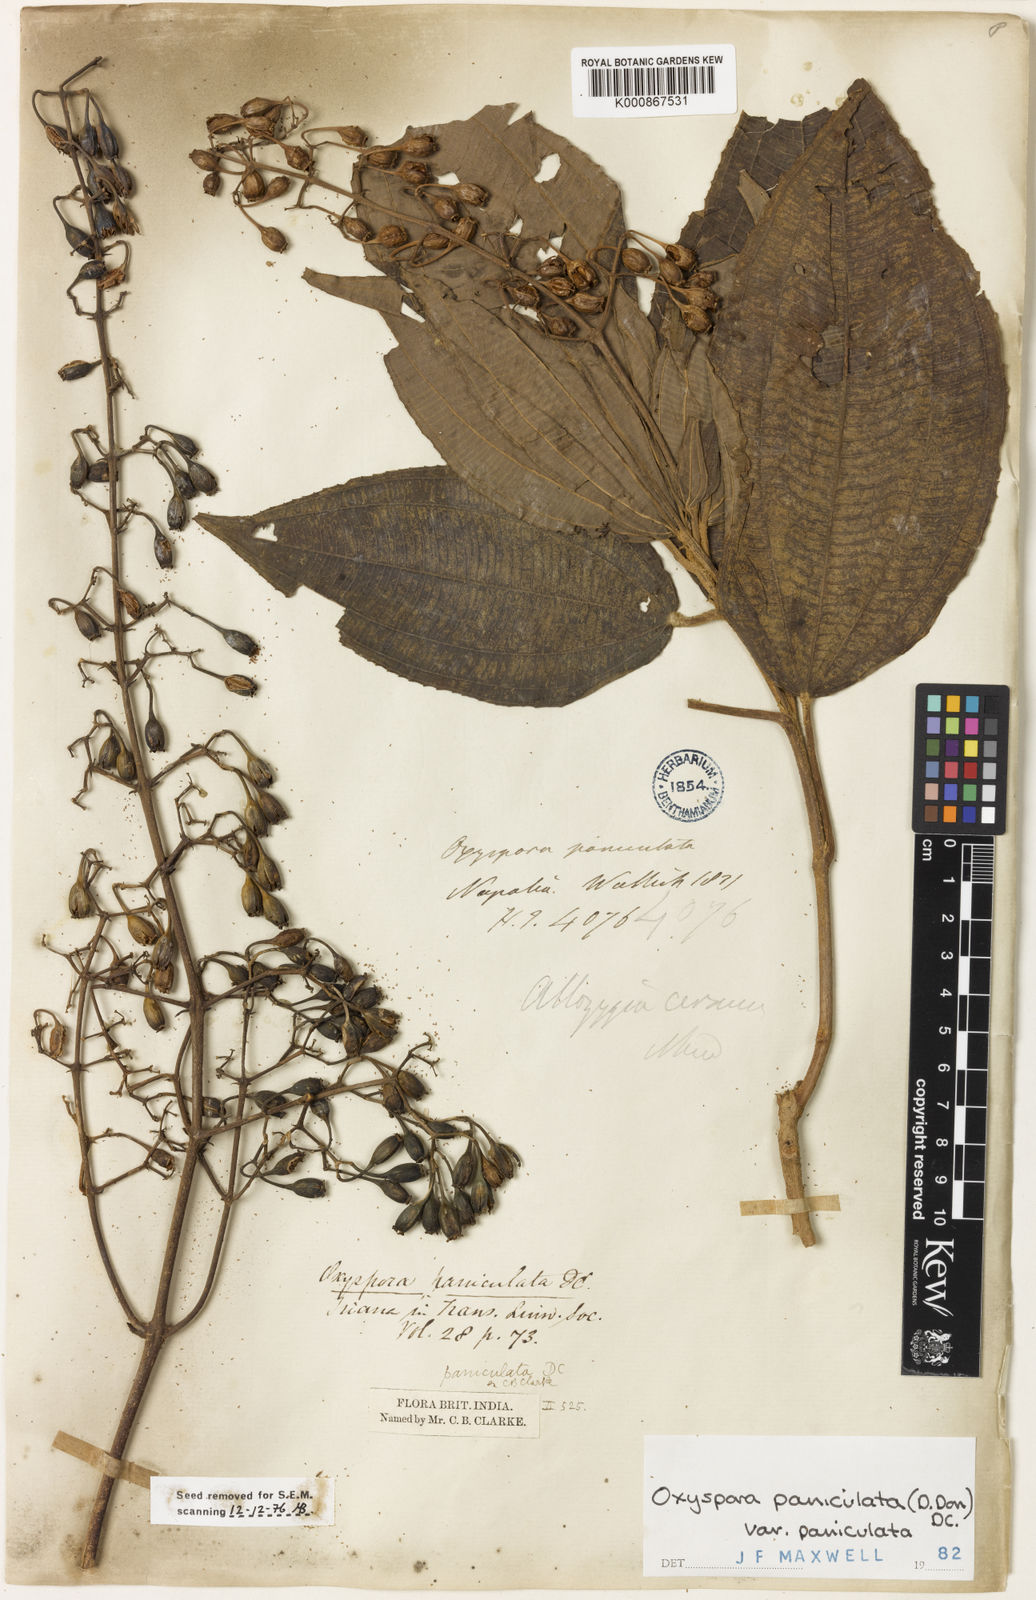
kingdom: Plantae
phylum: Tracheophyta
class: Magnoliopsida
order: Myrtales
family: Melastomataceae
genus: Oxyspora
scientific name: Oxyspora paniculata
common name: Bristletips
